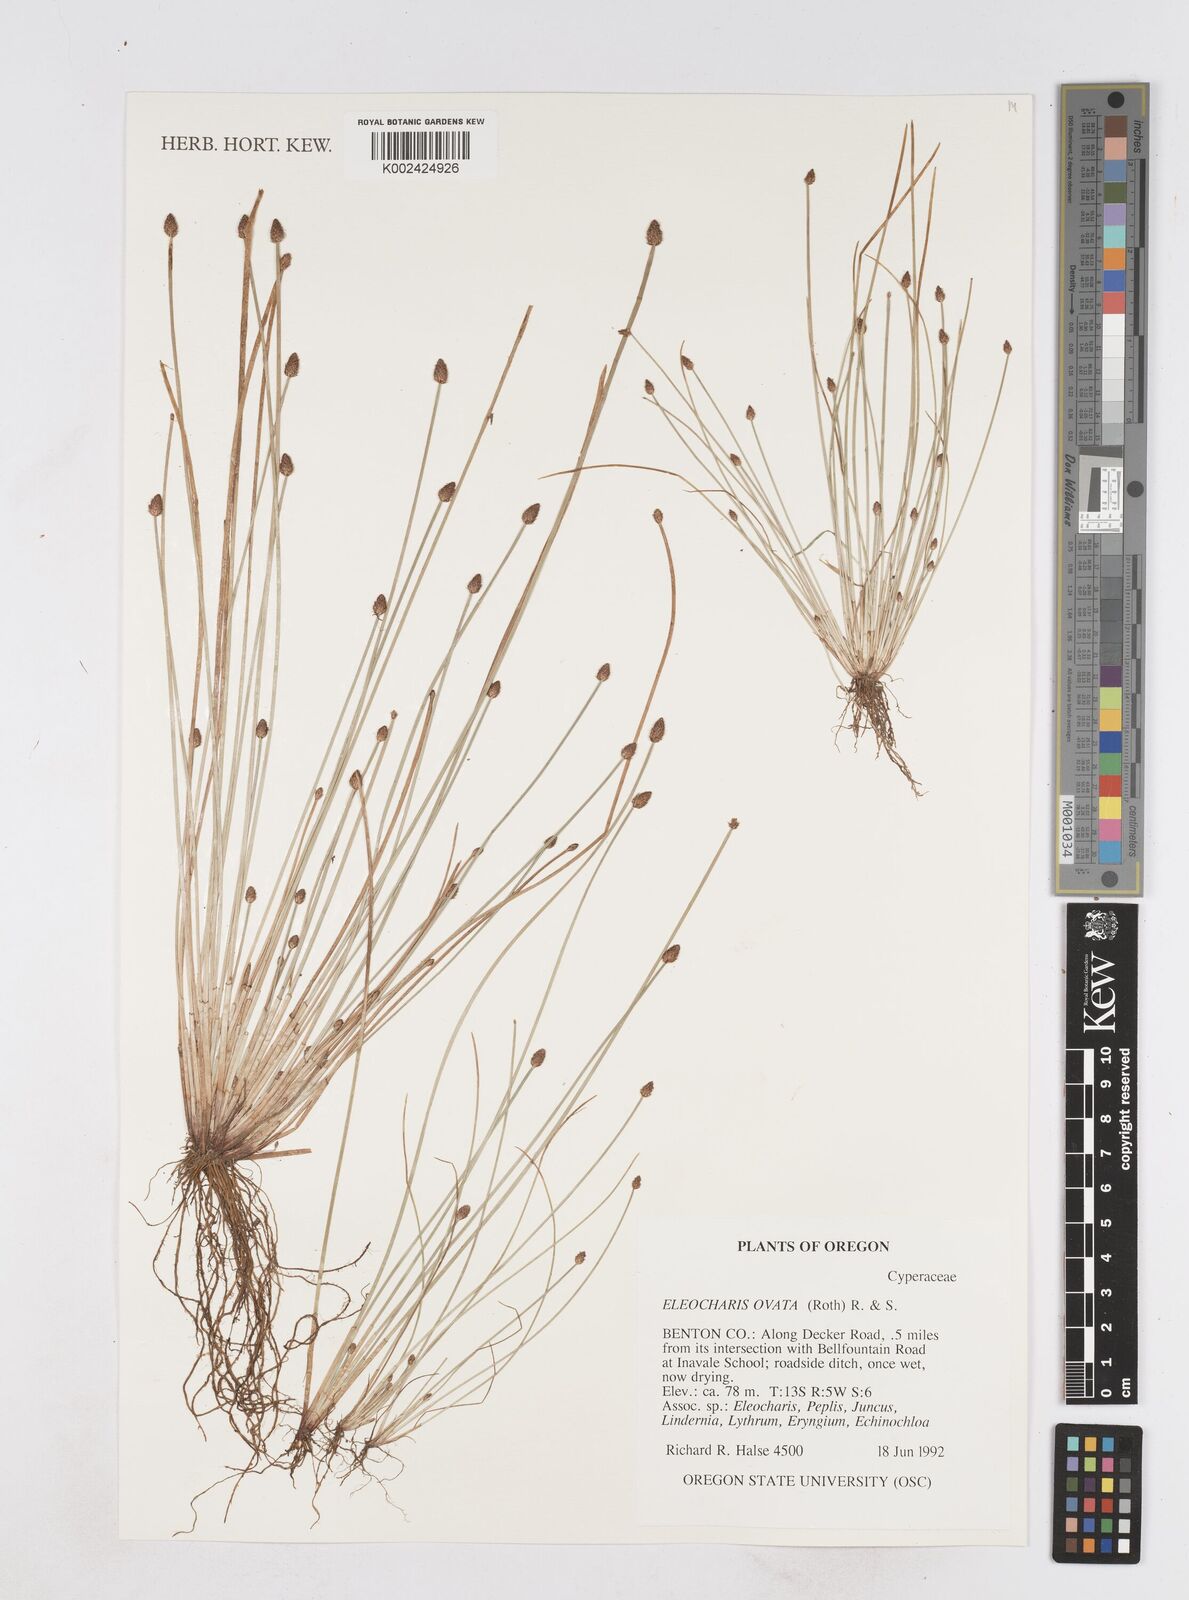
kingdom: Plantae
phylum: Tracheophyta
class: Liliopsida
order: Poales
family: Cyperaceae
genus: Eleocharis
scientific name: Eleocharis ovata
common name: Oval spike-rush
